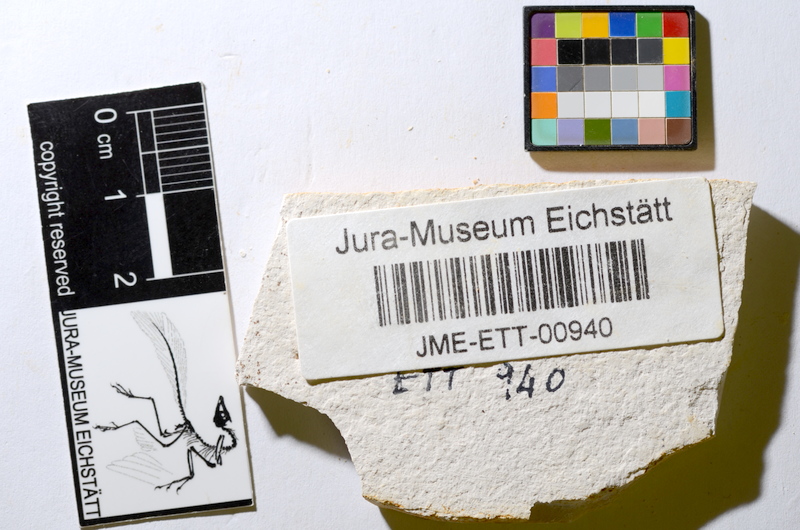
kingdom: Animalia
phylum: Chordata
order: Salmoniformes
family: Orthogonikleithridae
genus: Orthogonikleithrus
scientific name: Orthogonikleithrus hoelli
